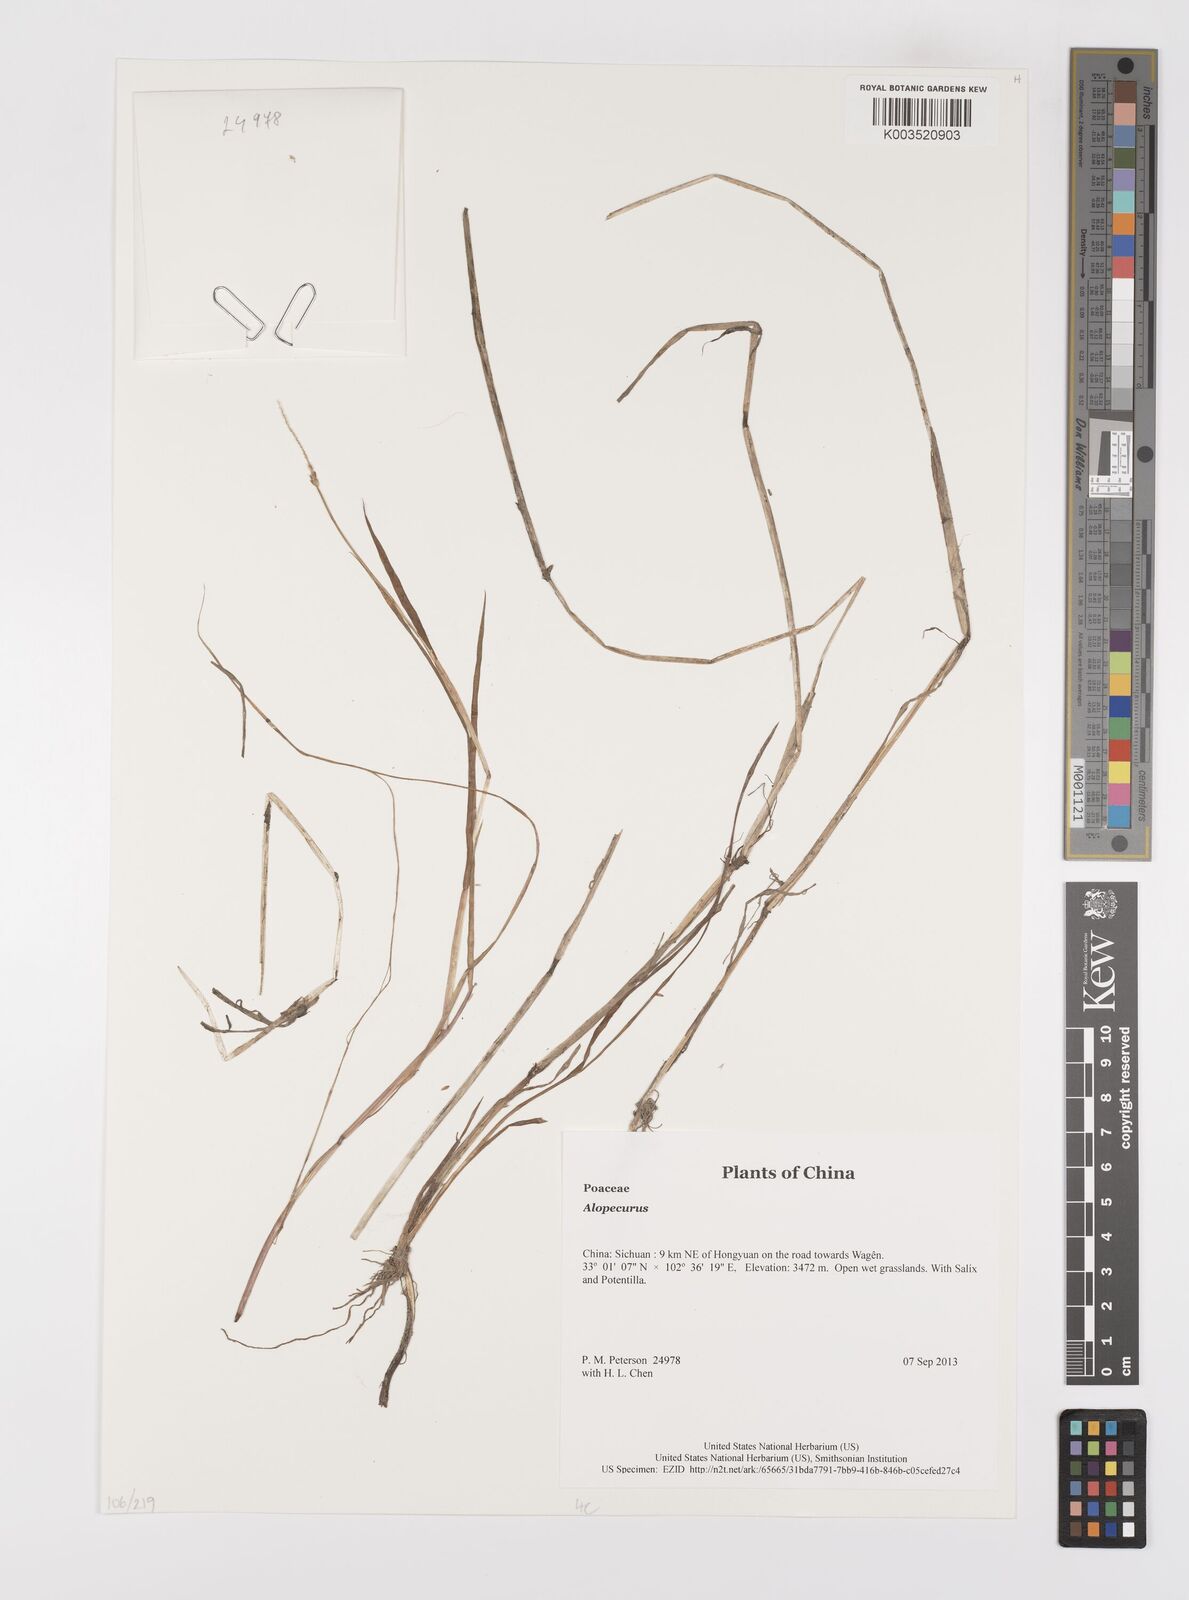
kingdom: Plantae
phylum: Tracheophyta
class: Liliopsida
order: Poales
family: Poaceae
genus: Alopecurus
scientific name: Alopecurus
